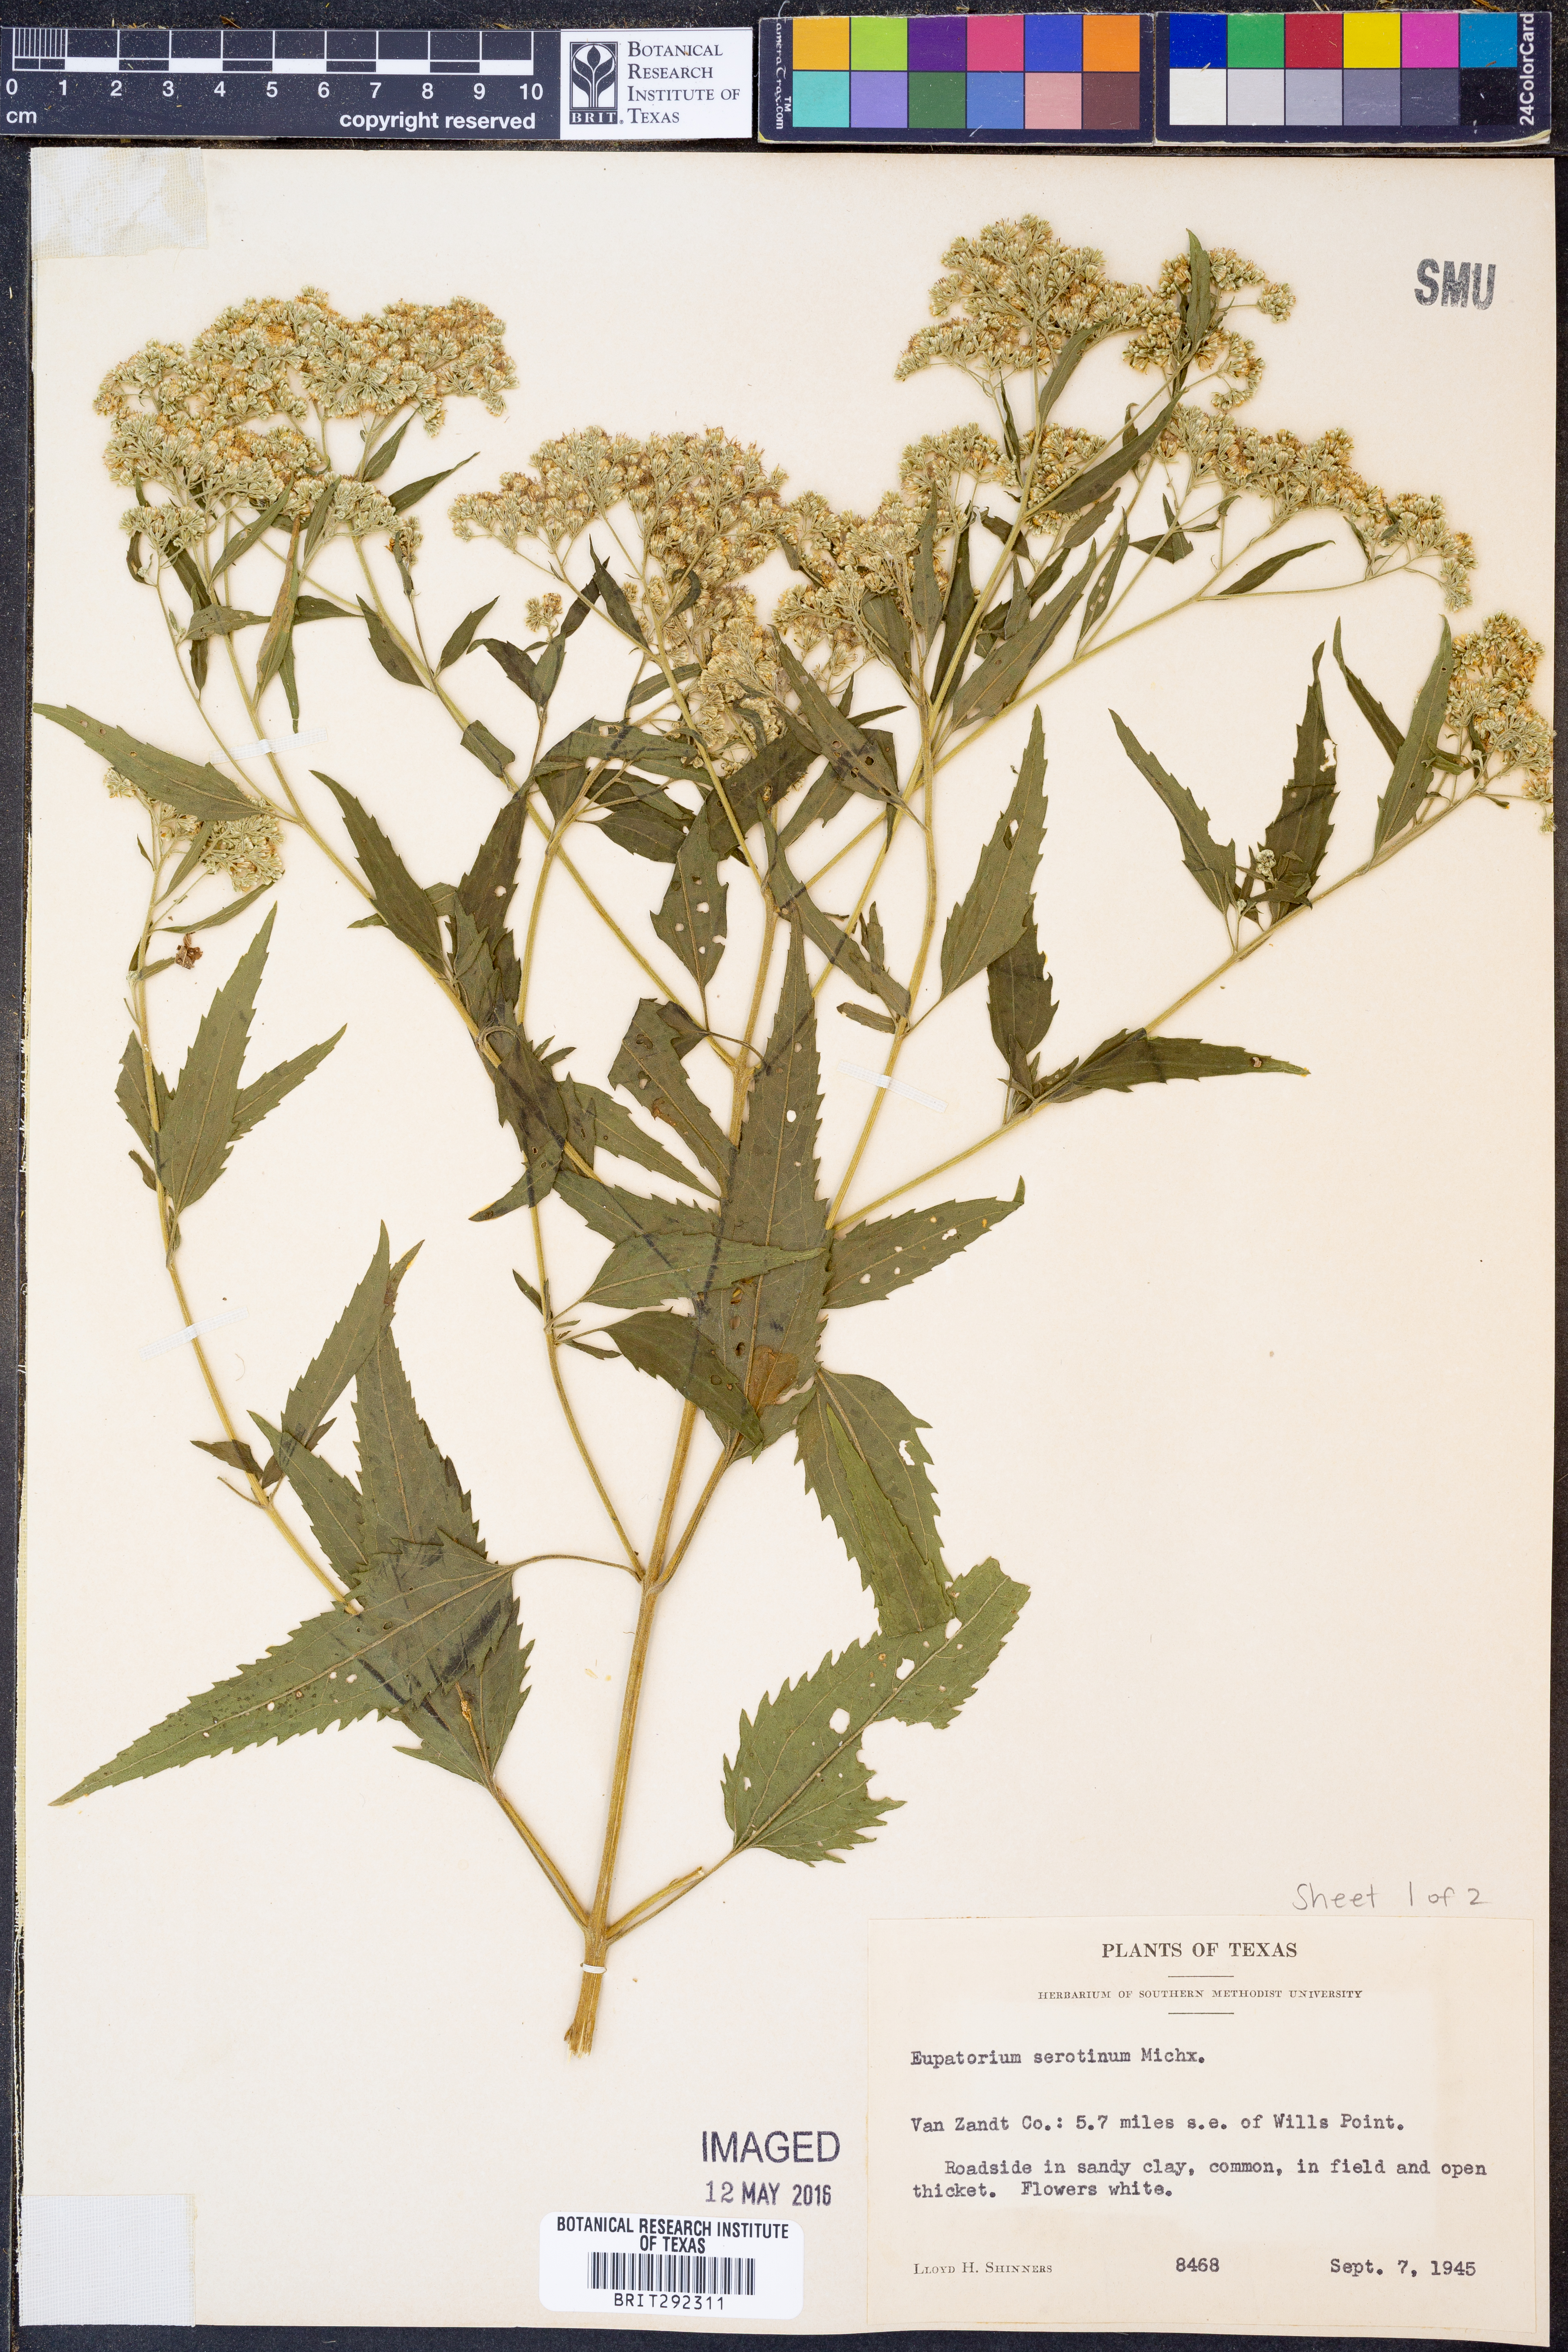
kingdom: Plantae
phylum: Tracheophyta
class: Magnoliopsida
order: Asterales
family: Asteraceae
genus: Eupatorium
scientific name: Eupatorium serotinum
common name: Late boneset
